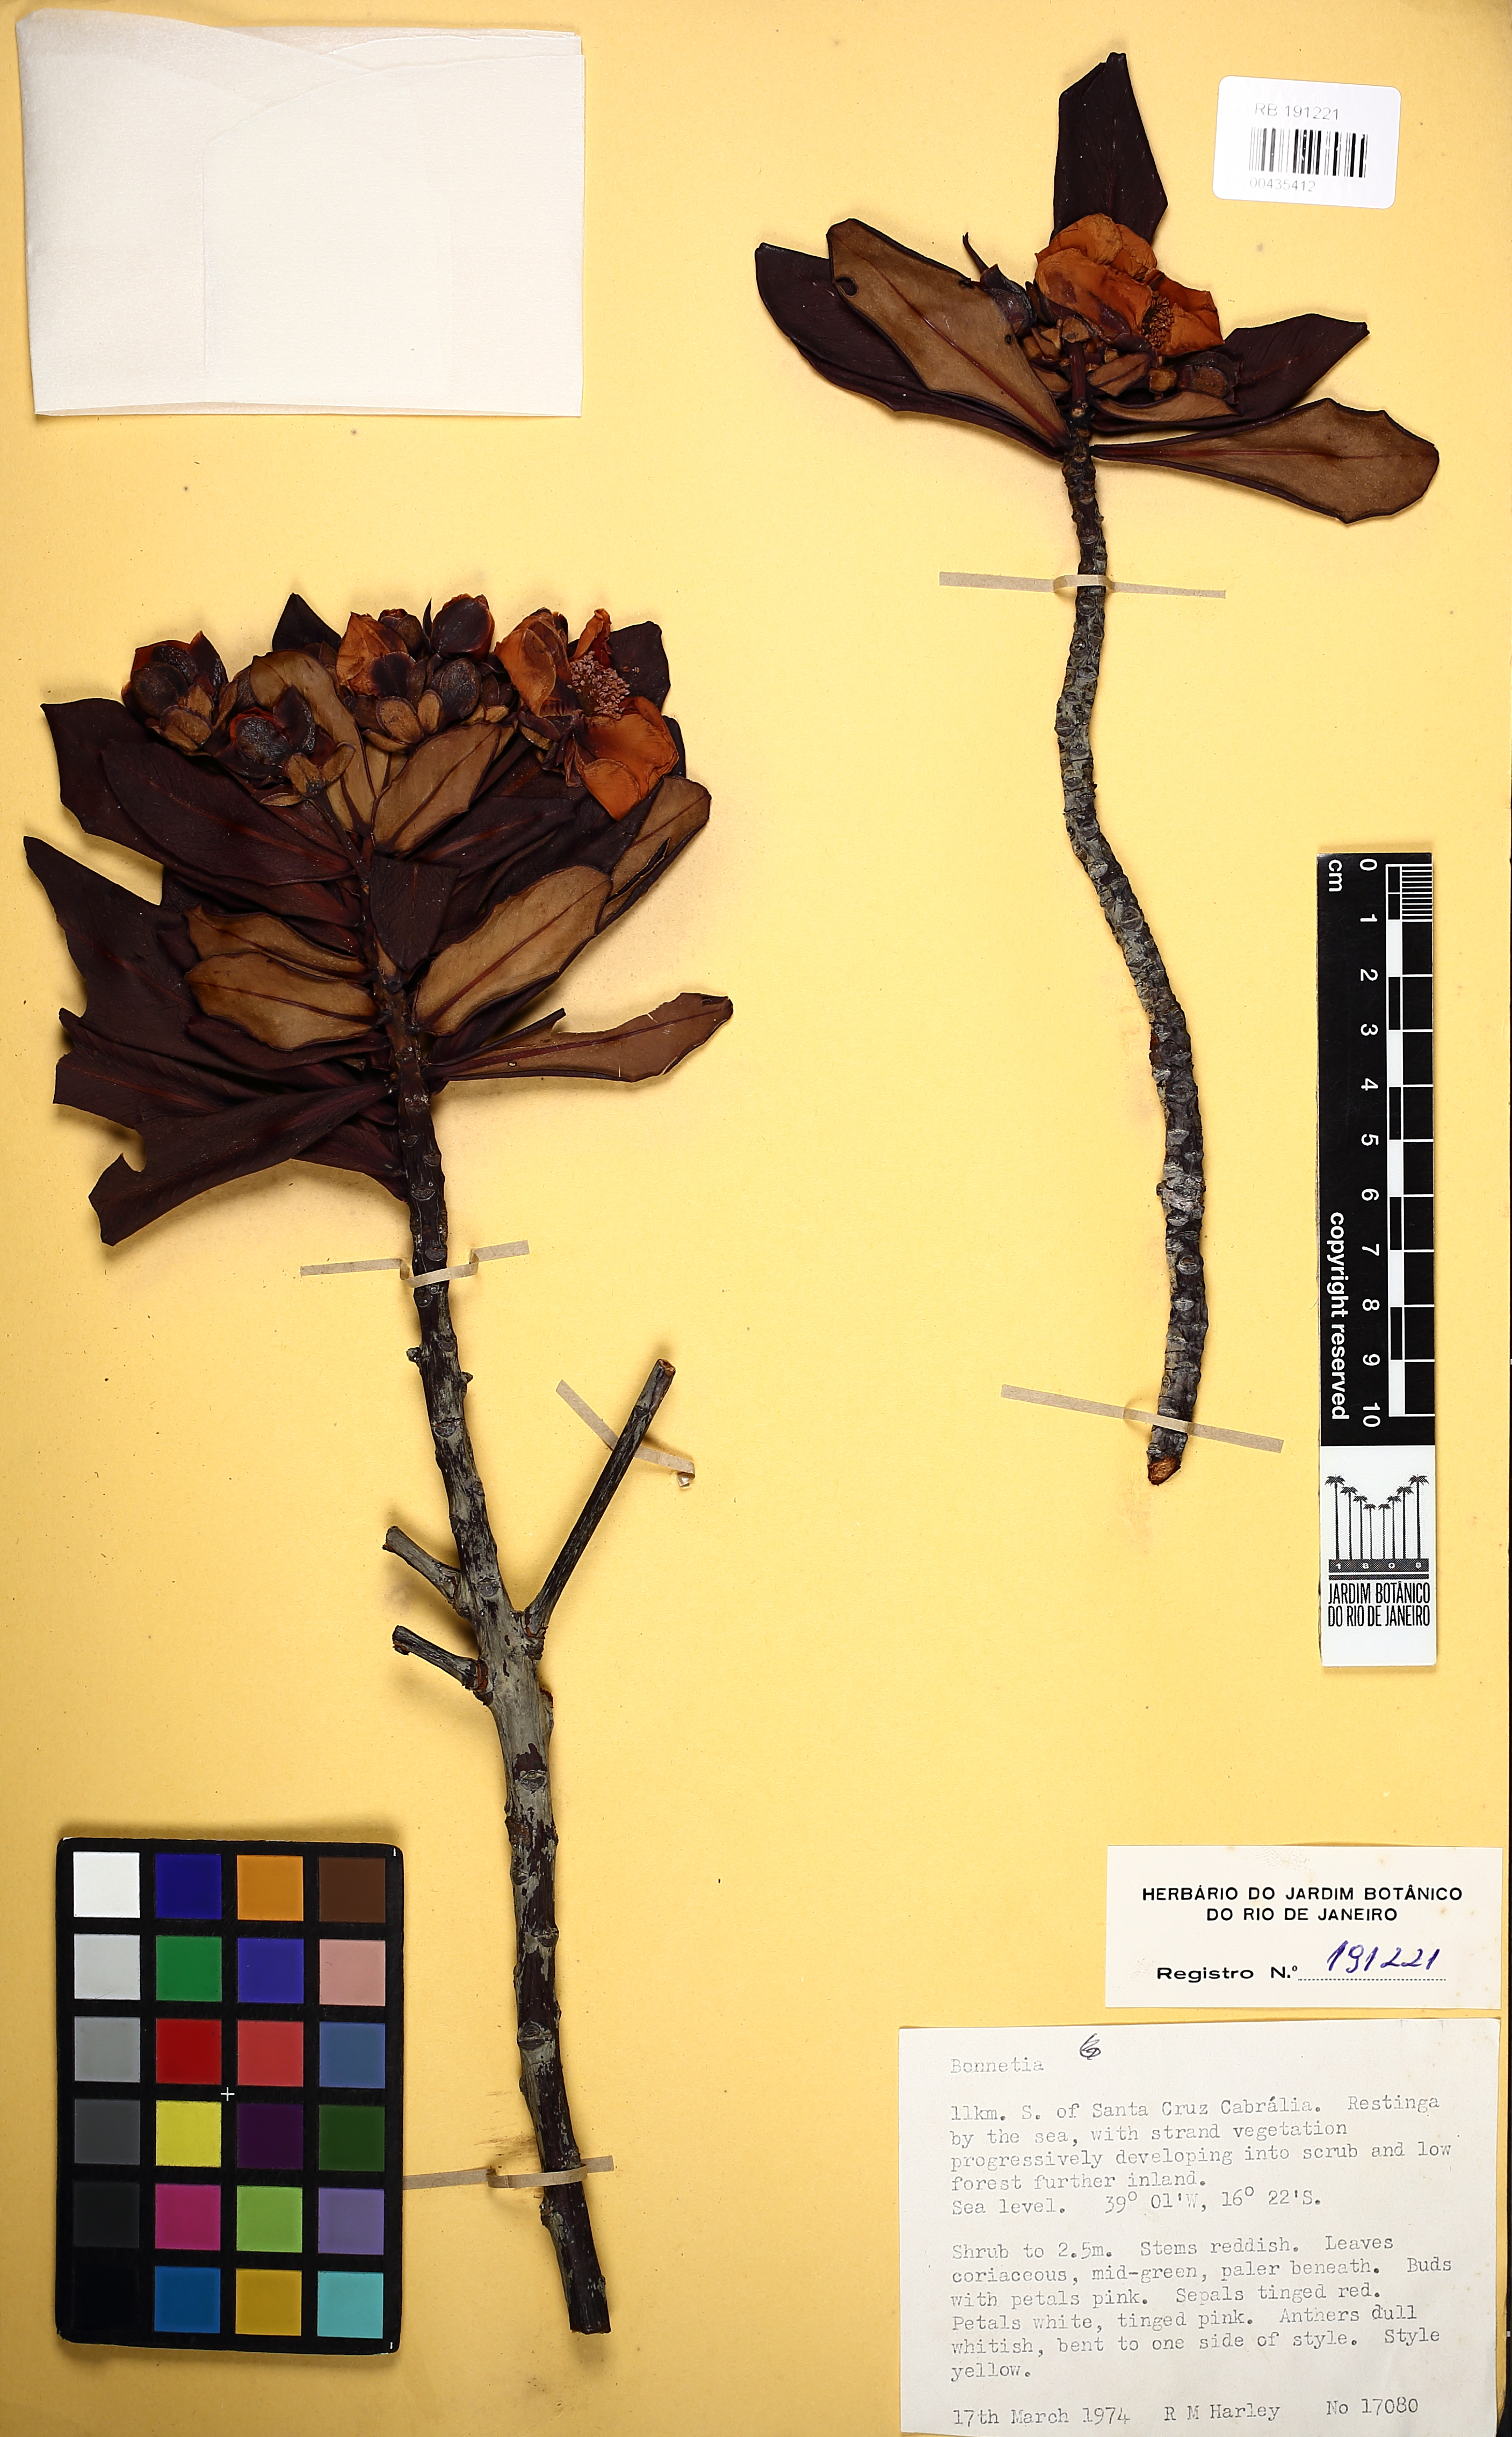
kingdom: Plantae
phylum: Tracheophyta
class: Magnoliopsida
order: Malpighiales
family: Bonnetiaceae
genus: Bonnetia
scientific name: Bonnetia
